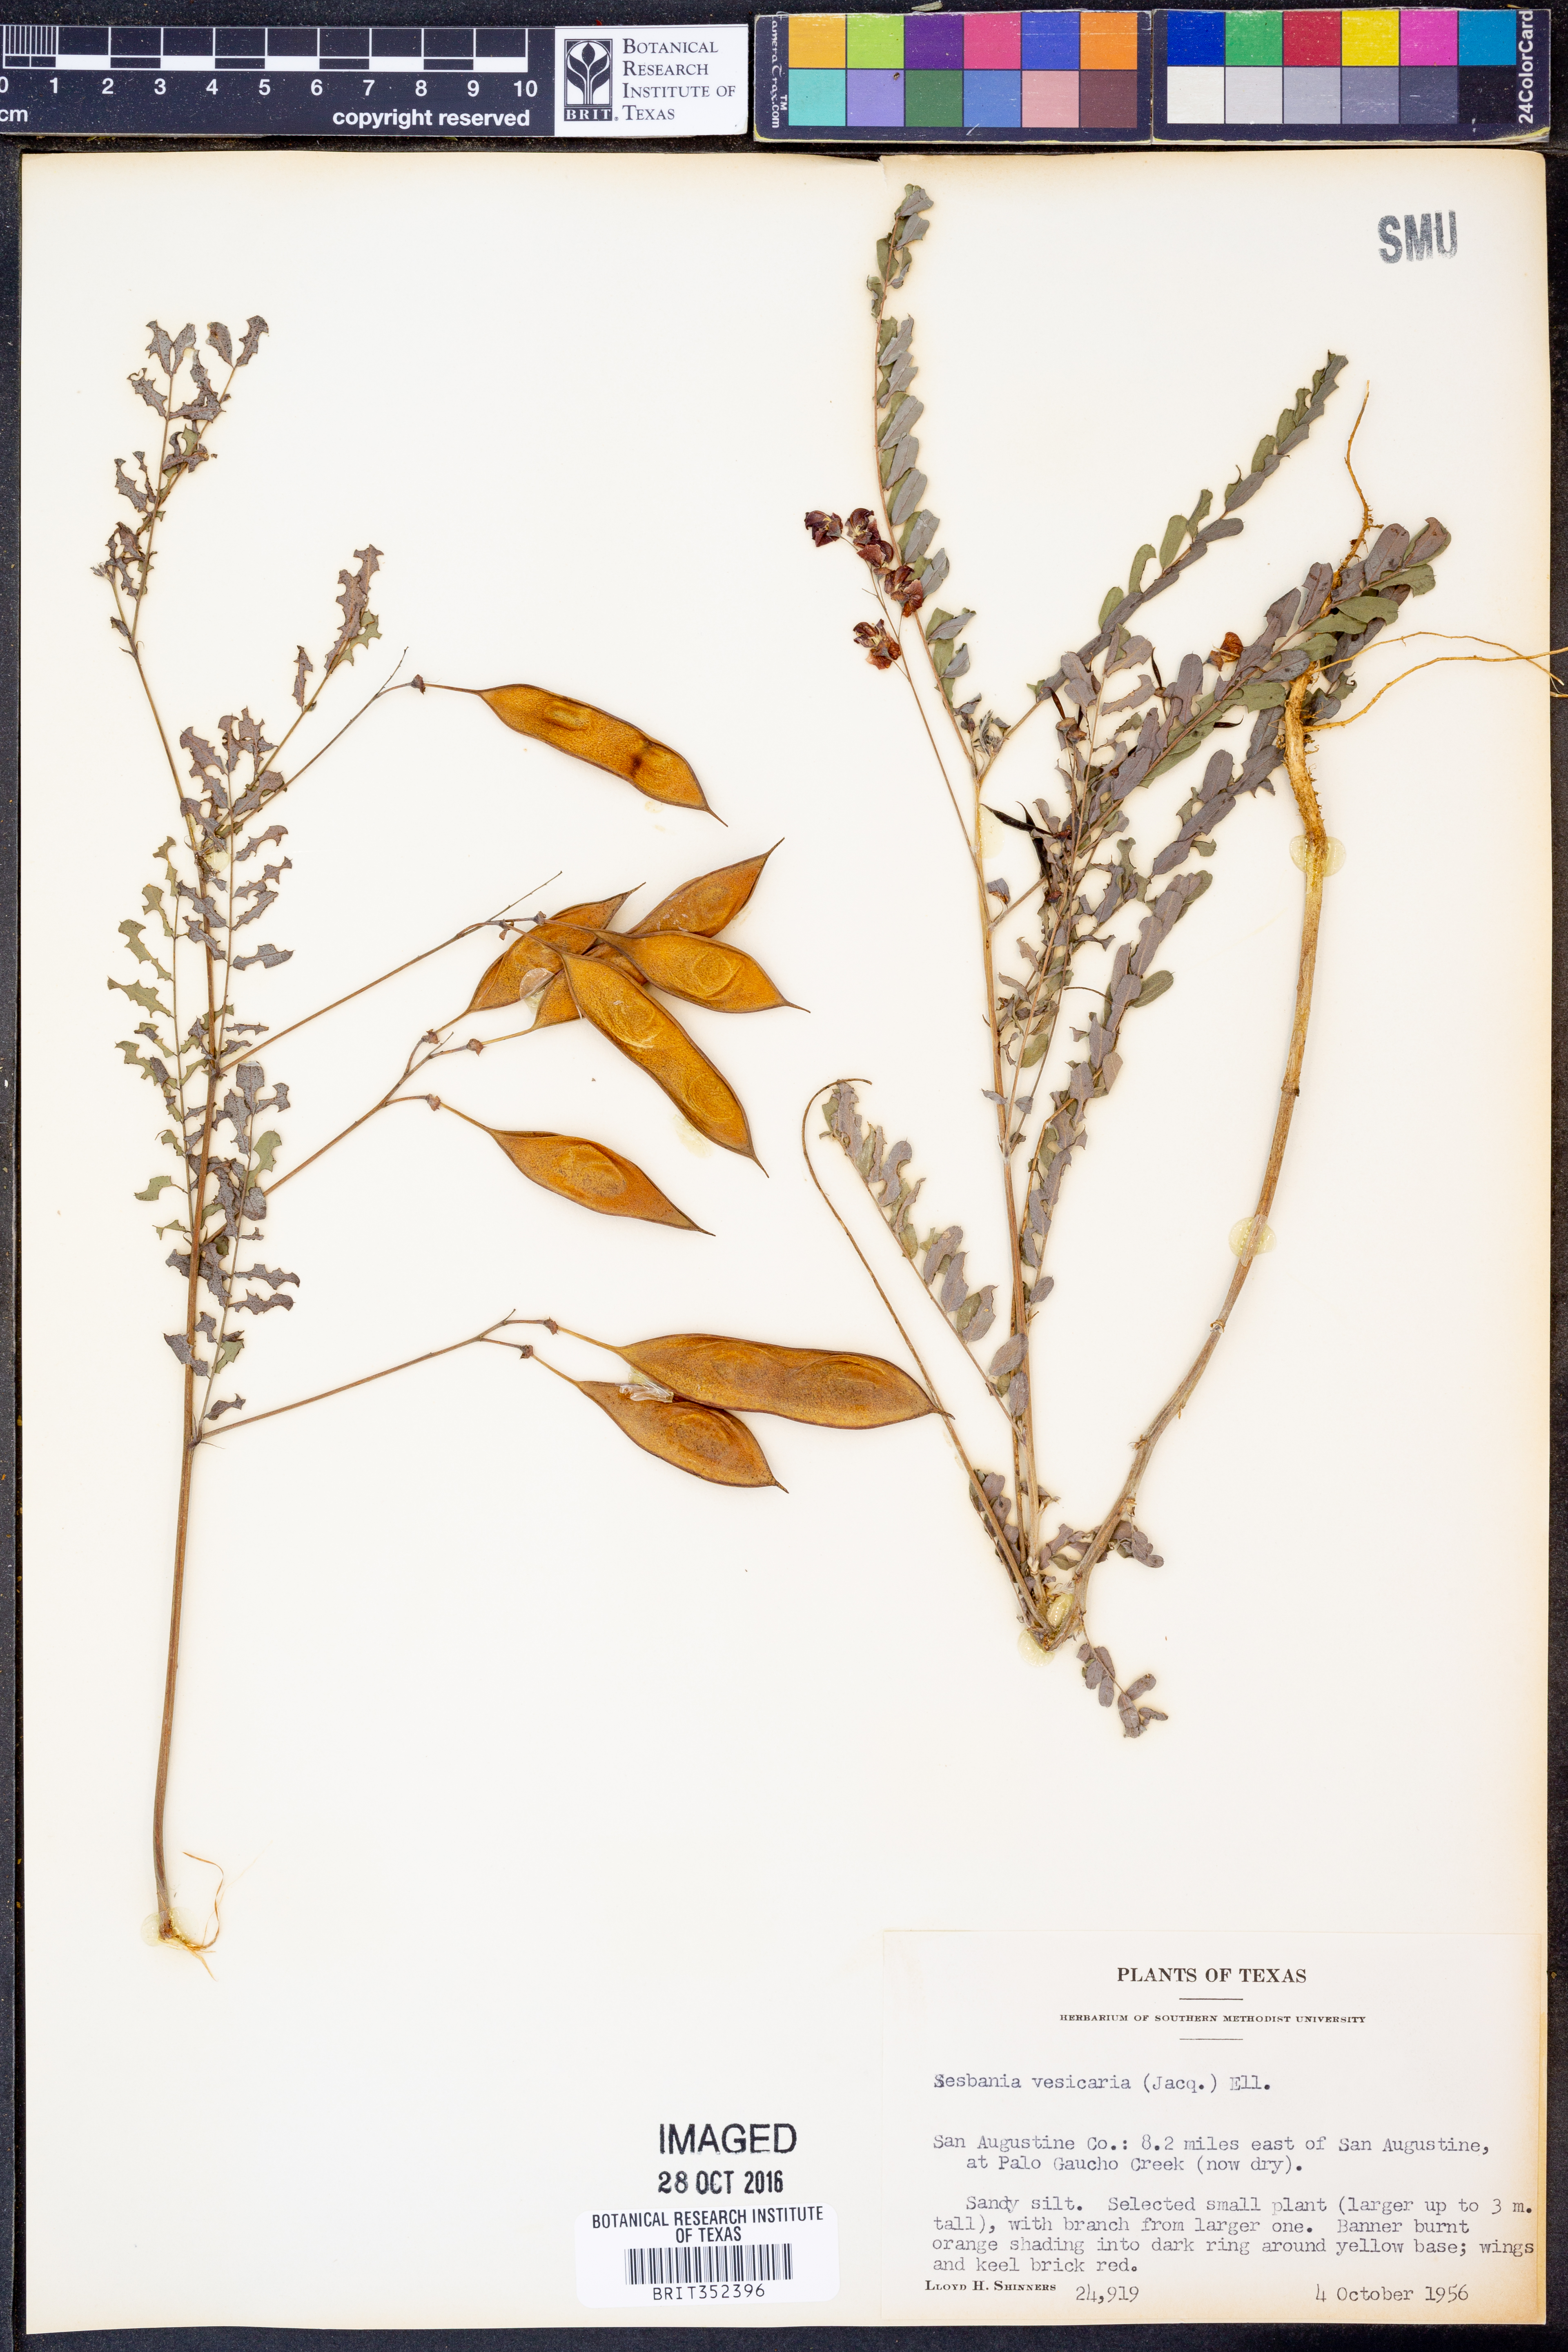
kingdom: Plantae
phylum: Tracheophyta
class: Magnoliopsida
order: Fabales
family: Fabaceae
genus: Sesbania
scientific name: Sesbania vesicaria
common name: Bagpod
